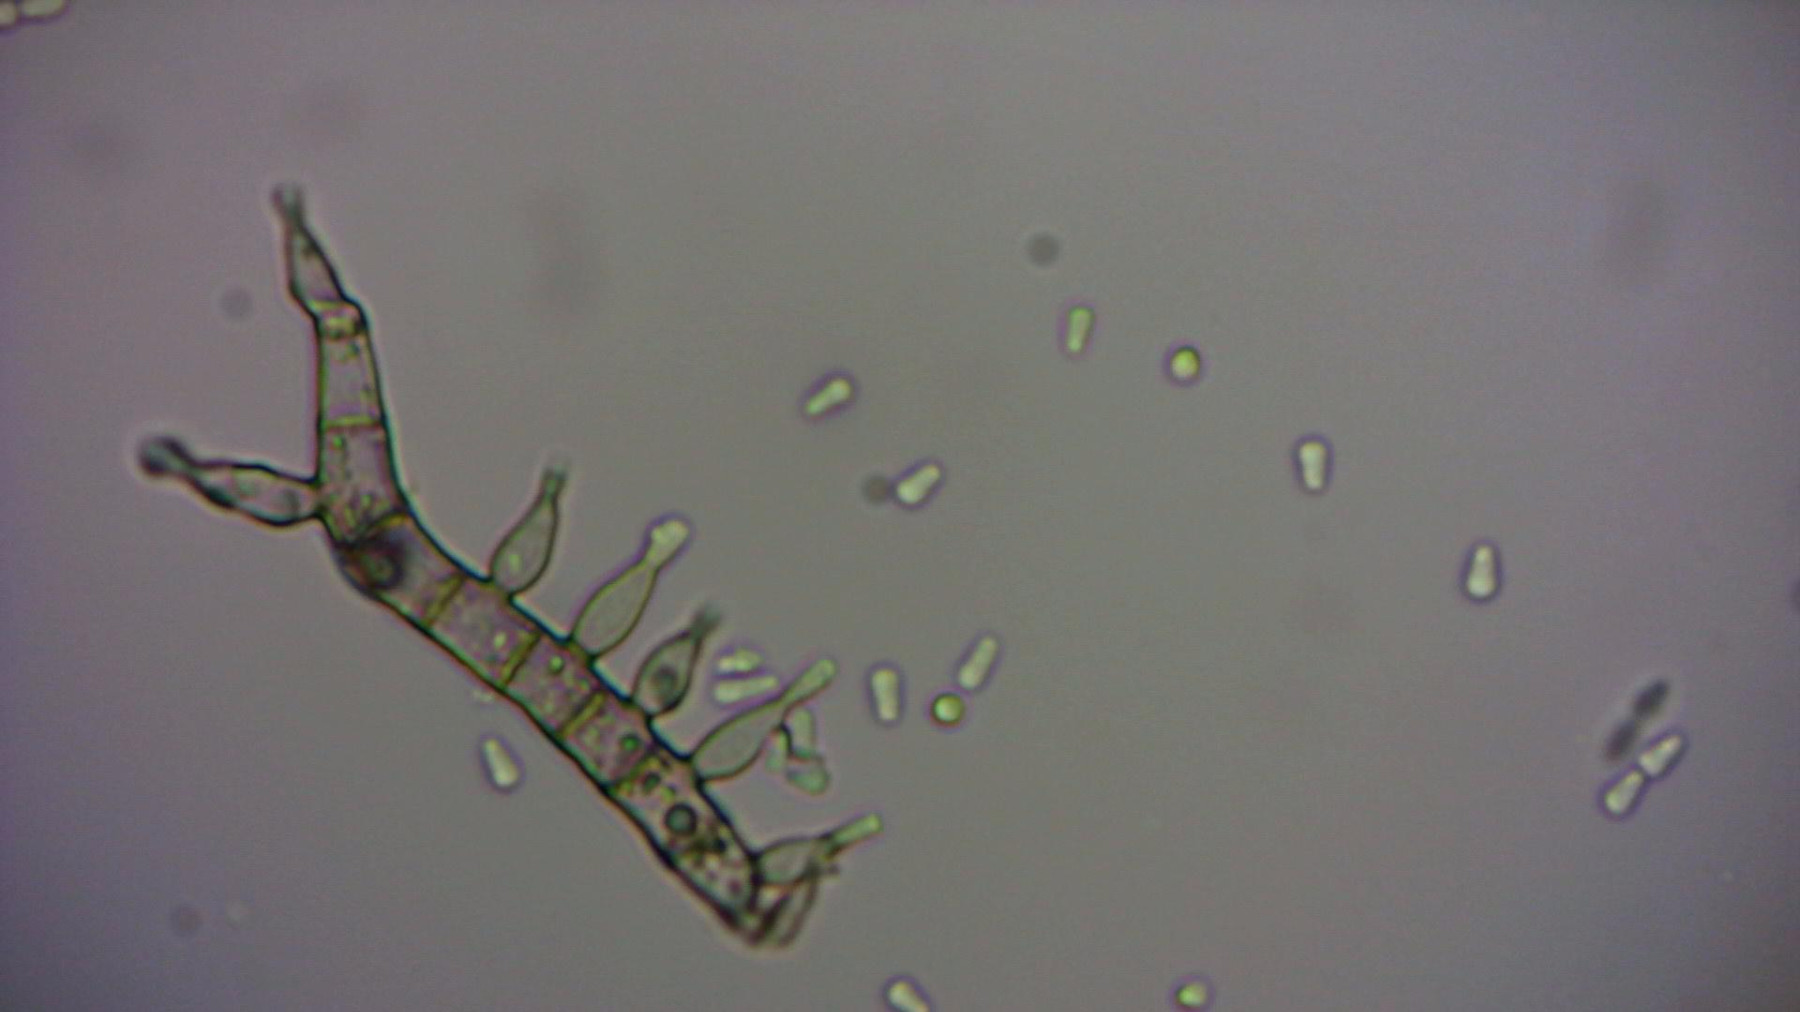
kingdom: Fungi
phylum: Ascomycota
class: Sordariomycetes
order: Sordariales
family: Lasiosphaeridaceae
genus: Lasiosphaeris
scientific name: Lasiosphaeris hirsuta
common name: sorthåret kernesvamp
